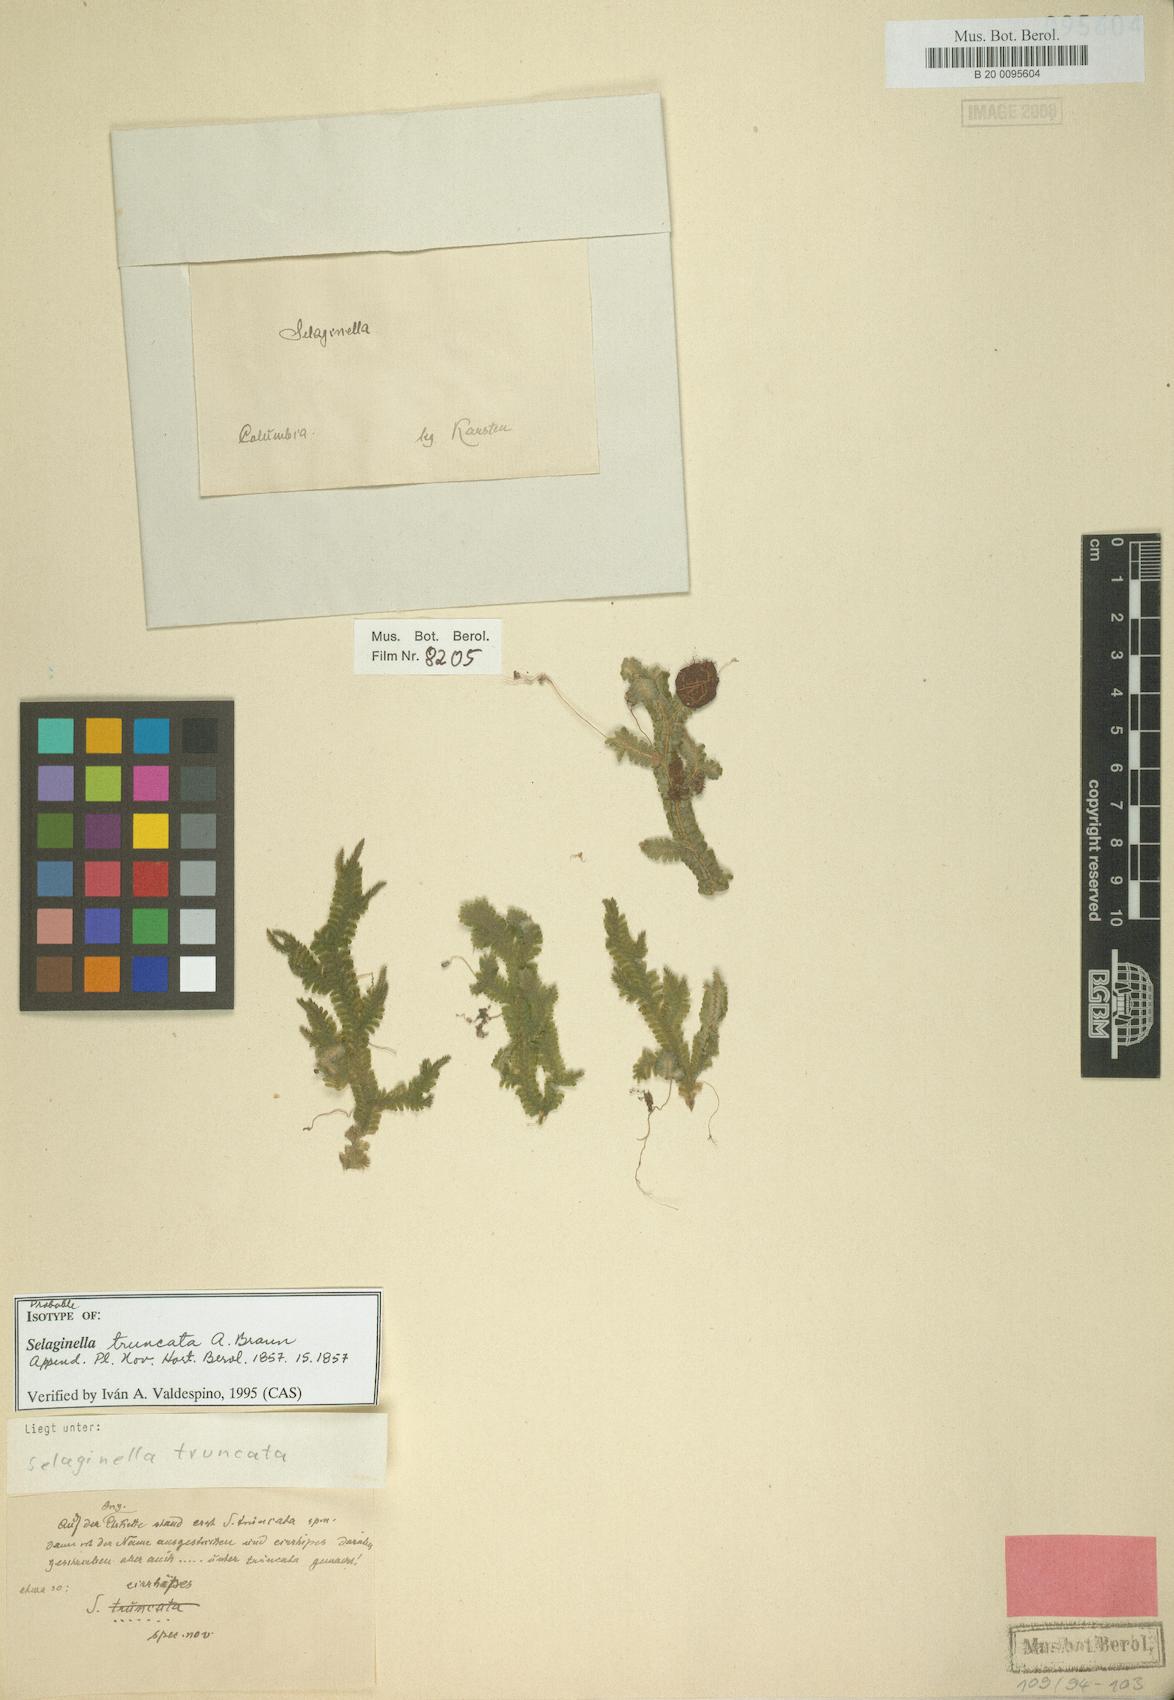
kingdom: Plantae
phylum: Tracheophyta
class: Lycopodiopsida
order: Selaginellales
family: Selaginellaceae
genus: Selaginella
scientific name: Selaginella truncata
